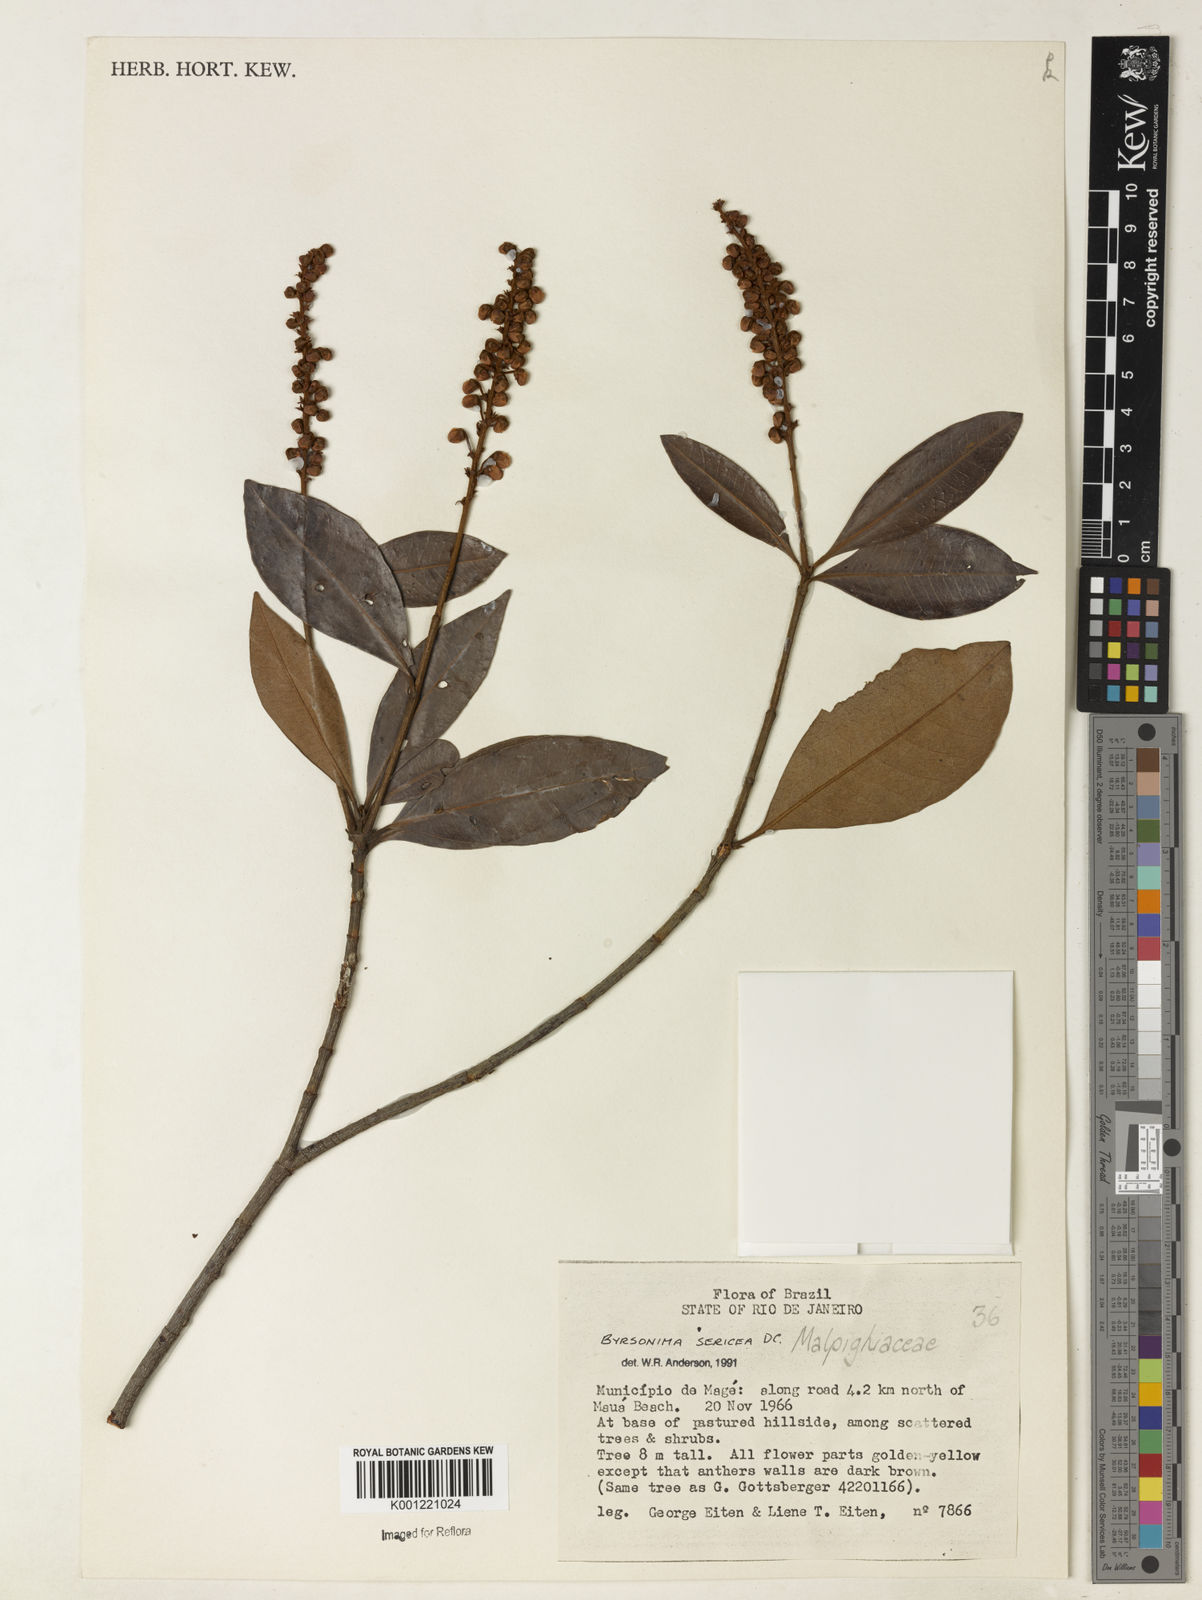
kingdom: Plantae
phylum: Tracheophyta
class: Magnoliopsida
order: Malpighiales
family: Malpighiaceae
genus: Byrsonima
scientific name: Byrsonima sericea
